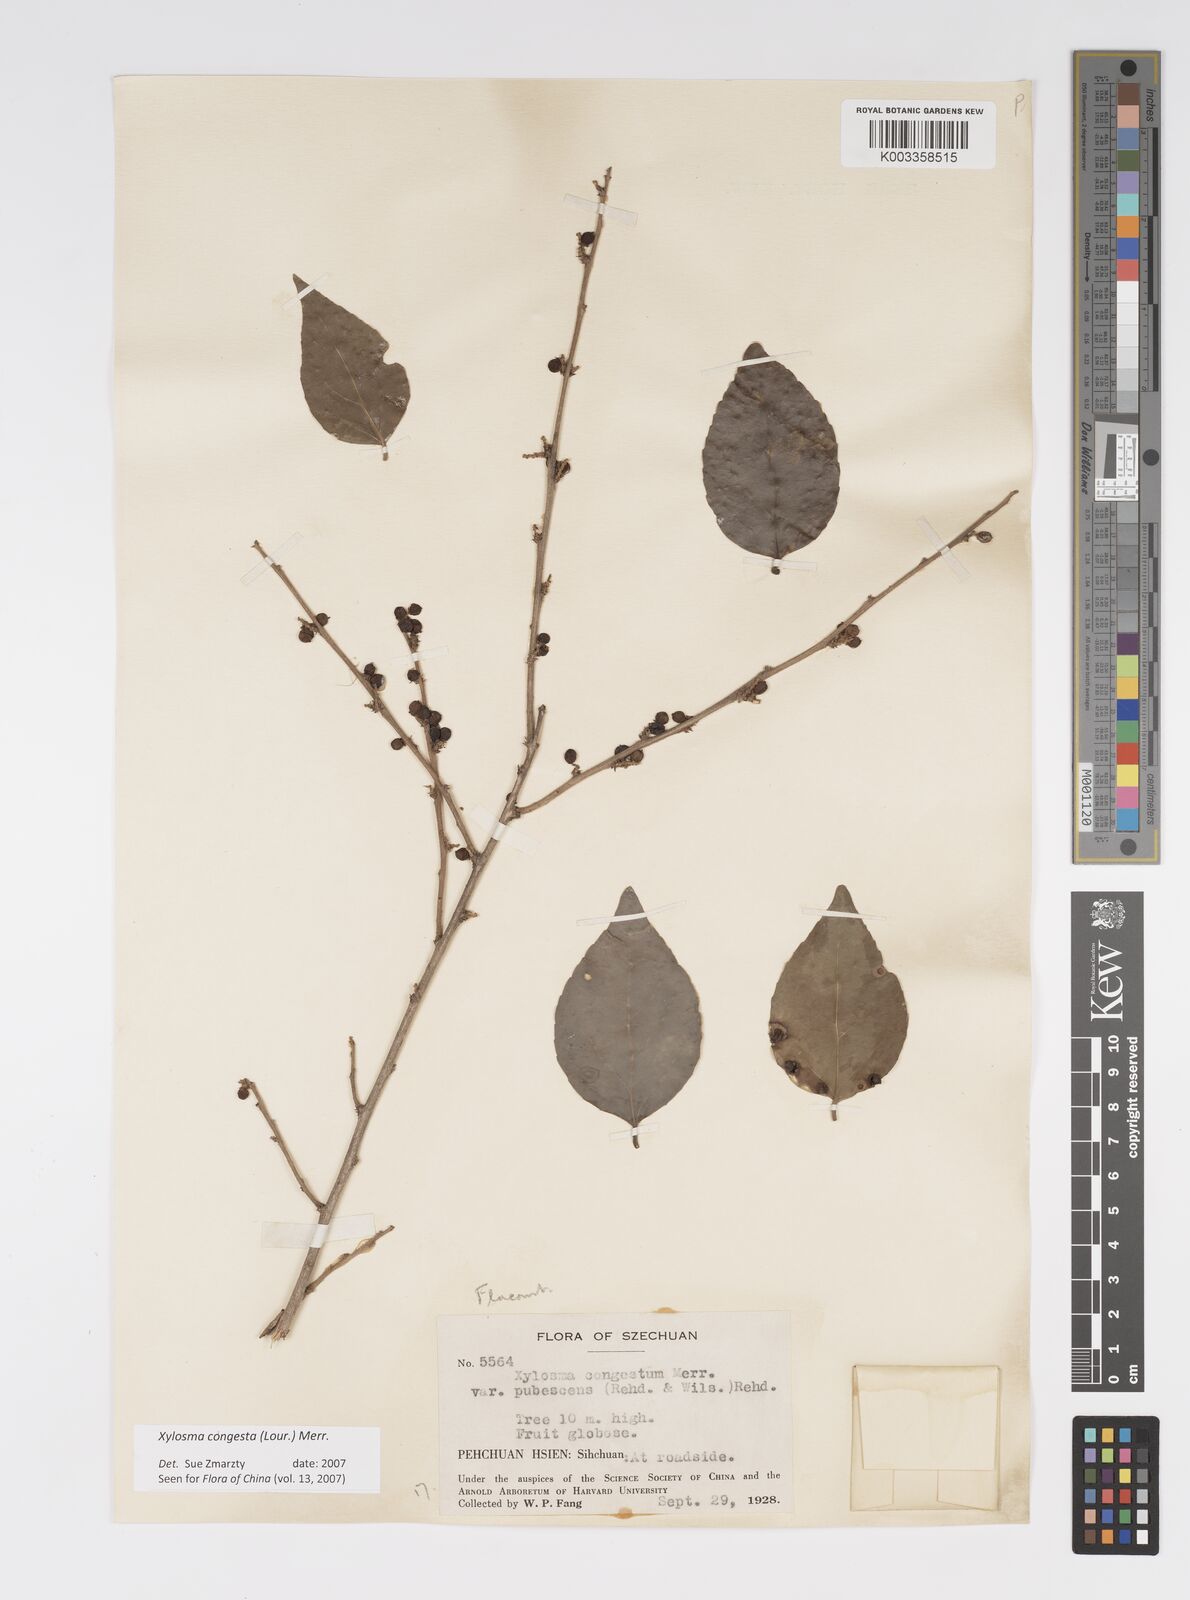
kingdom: Plantae
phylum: Tracheophyta
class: Magnoliopsida
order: Malpighiales
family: Salicaceae
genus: Xylosma
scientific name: Xylosma racemosum
